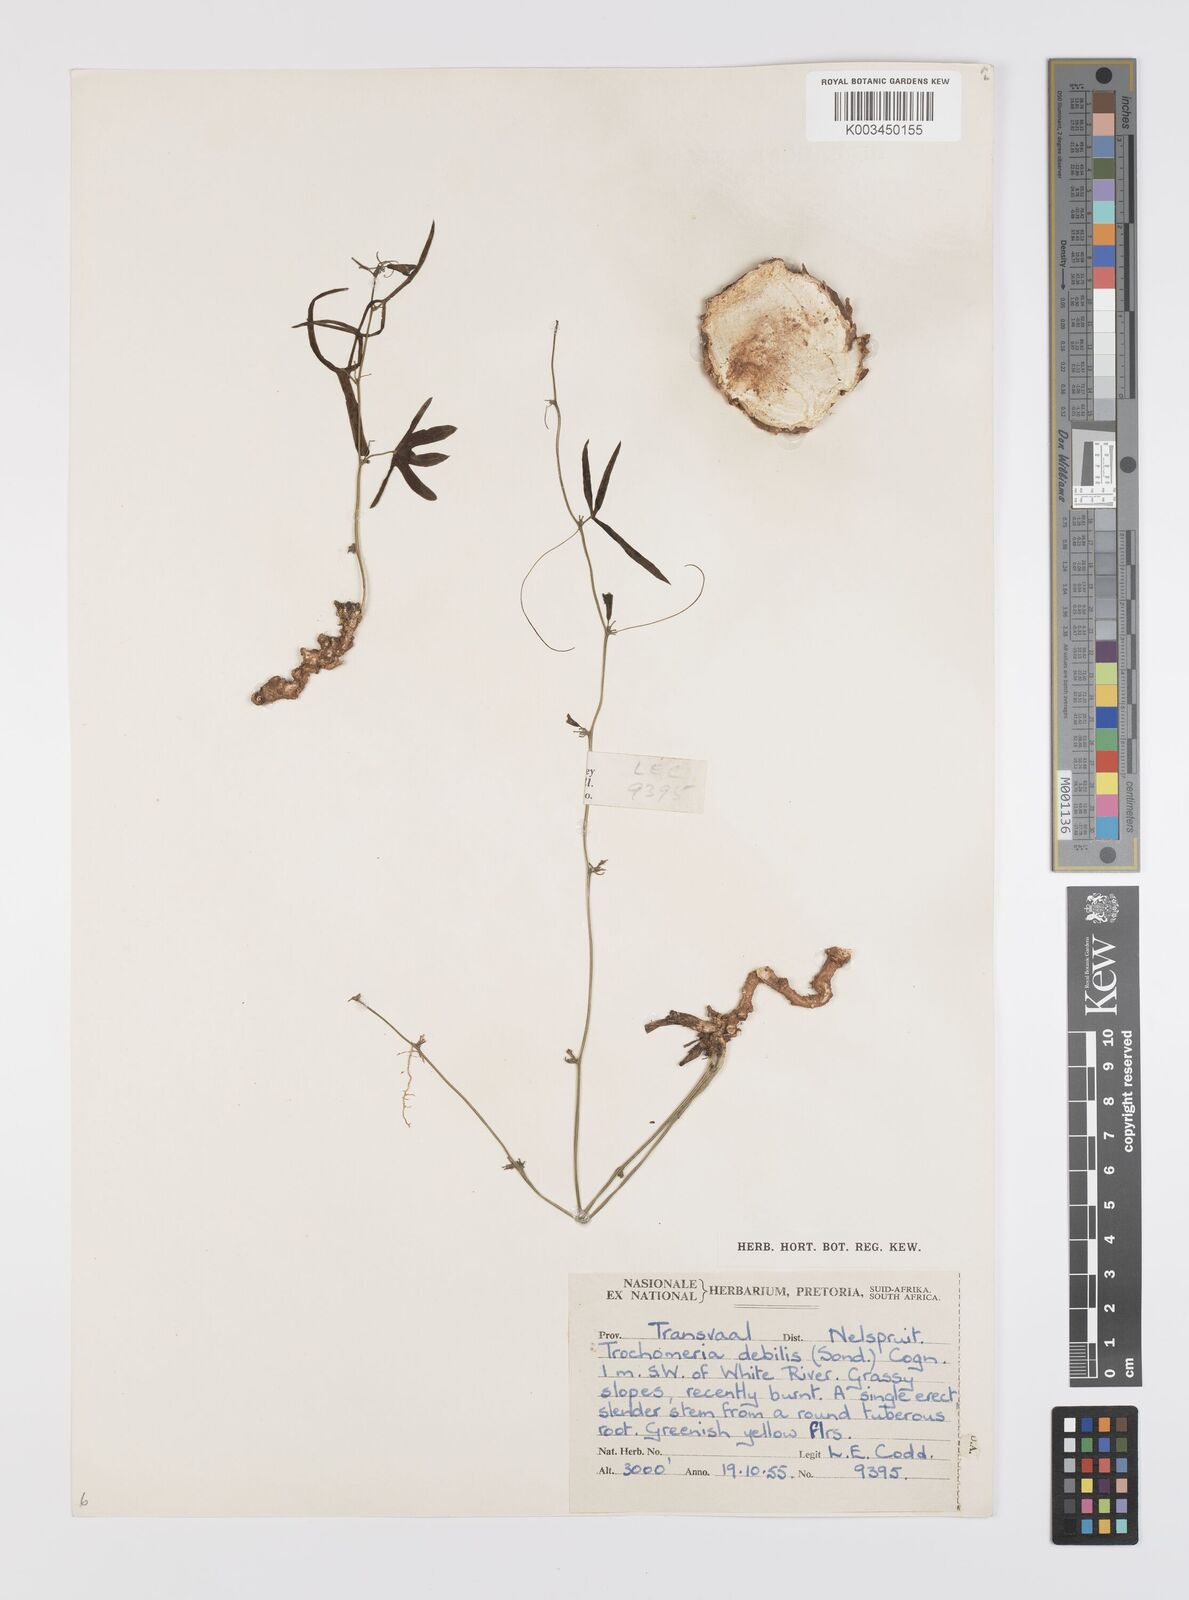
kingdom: Plantae
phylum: Tracheophyta
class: Magnoliopsida
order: Cucurbitales
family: Cucurbitaceae
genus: Trochomeria
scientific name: Trochomeria debilis
